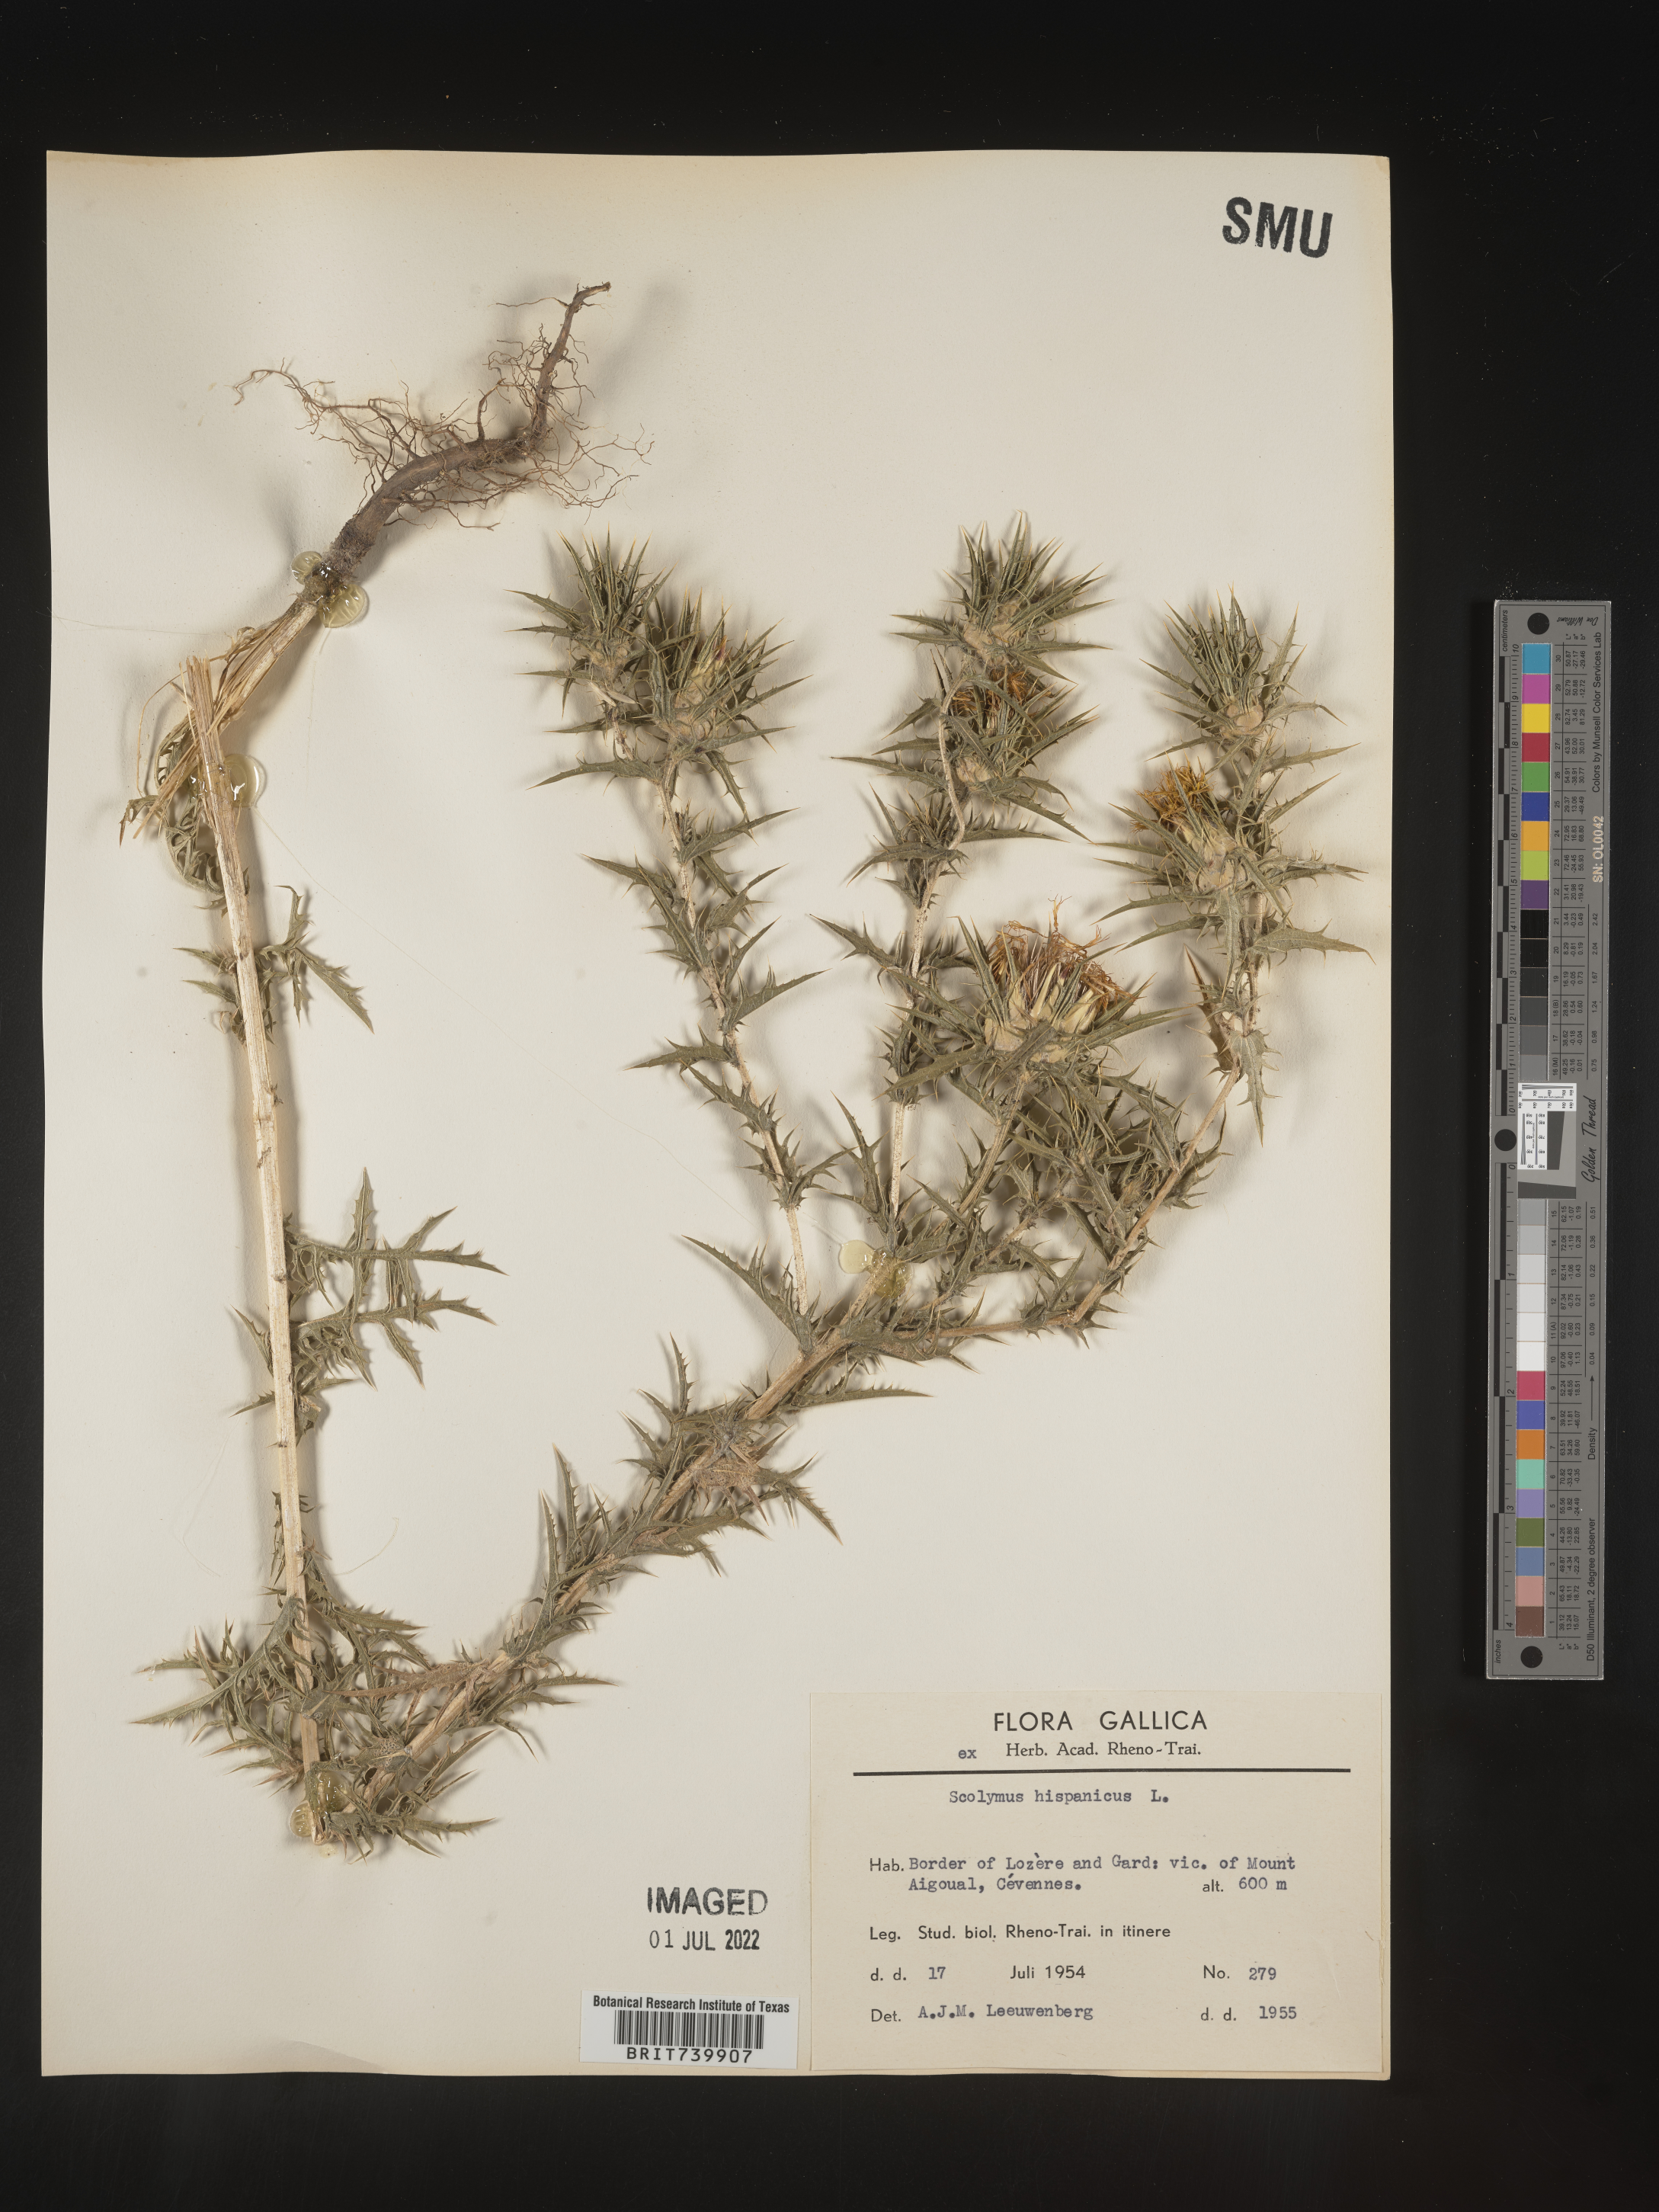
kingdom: Plantae
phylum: Tracheophyta
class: Magnoliopsida
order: Asterales
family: Asteraceae
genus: Scolymus
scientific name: Scolymus
